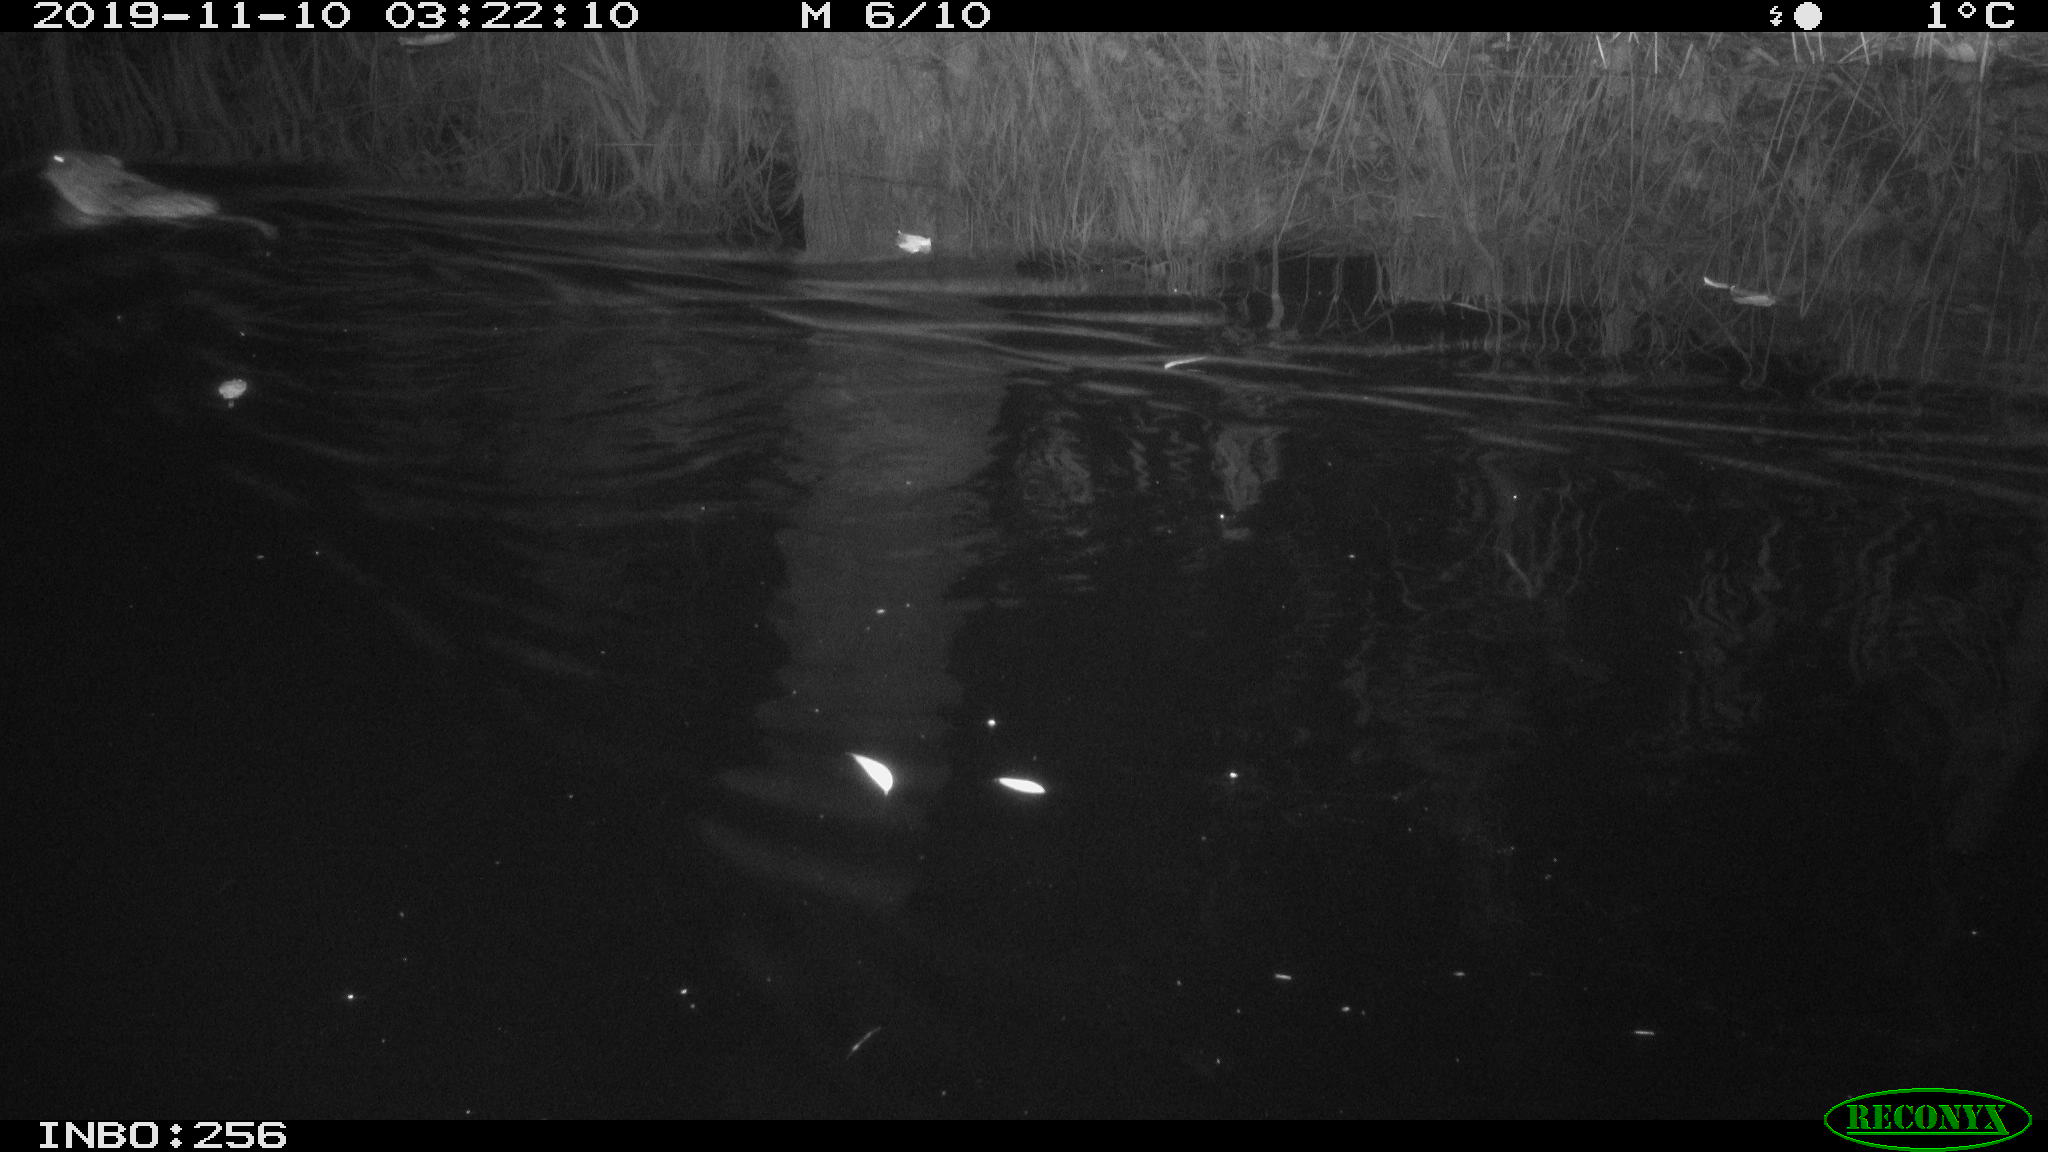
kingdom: Animalia
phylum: Chordata
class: Mammalia
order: Rodentia
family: Cricetidae
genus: Ondatra
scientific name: Ondatra zibethicus
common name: Muskrat
